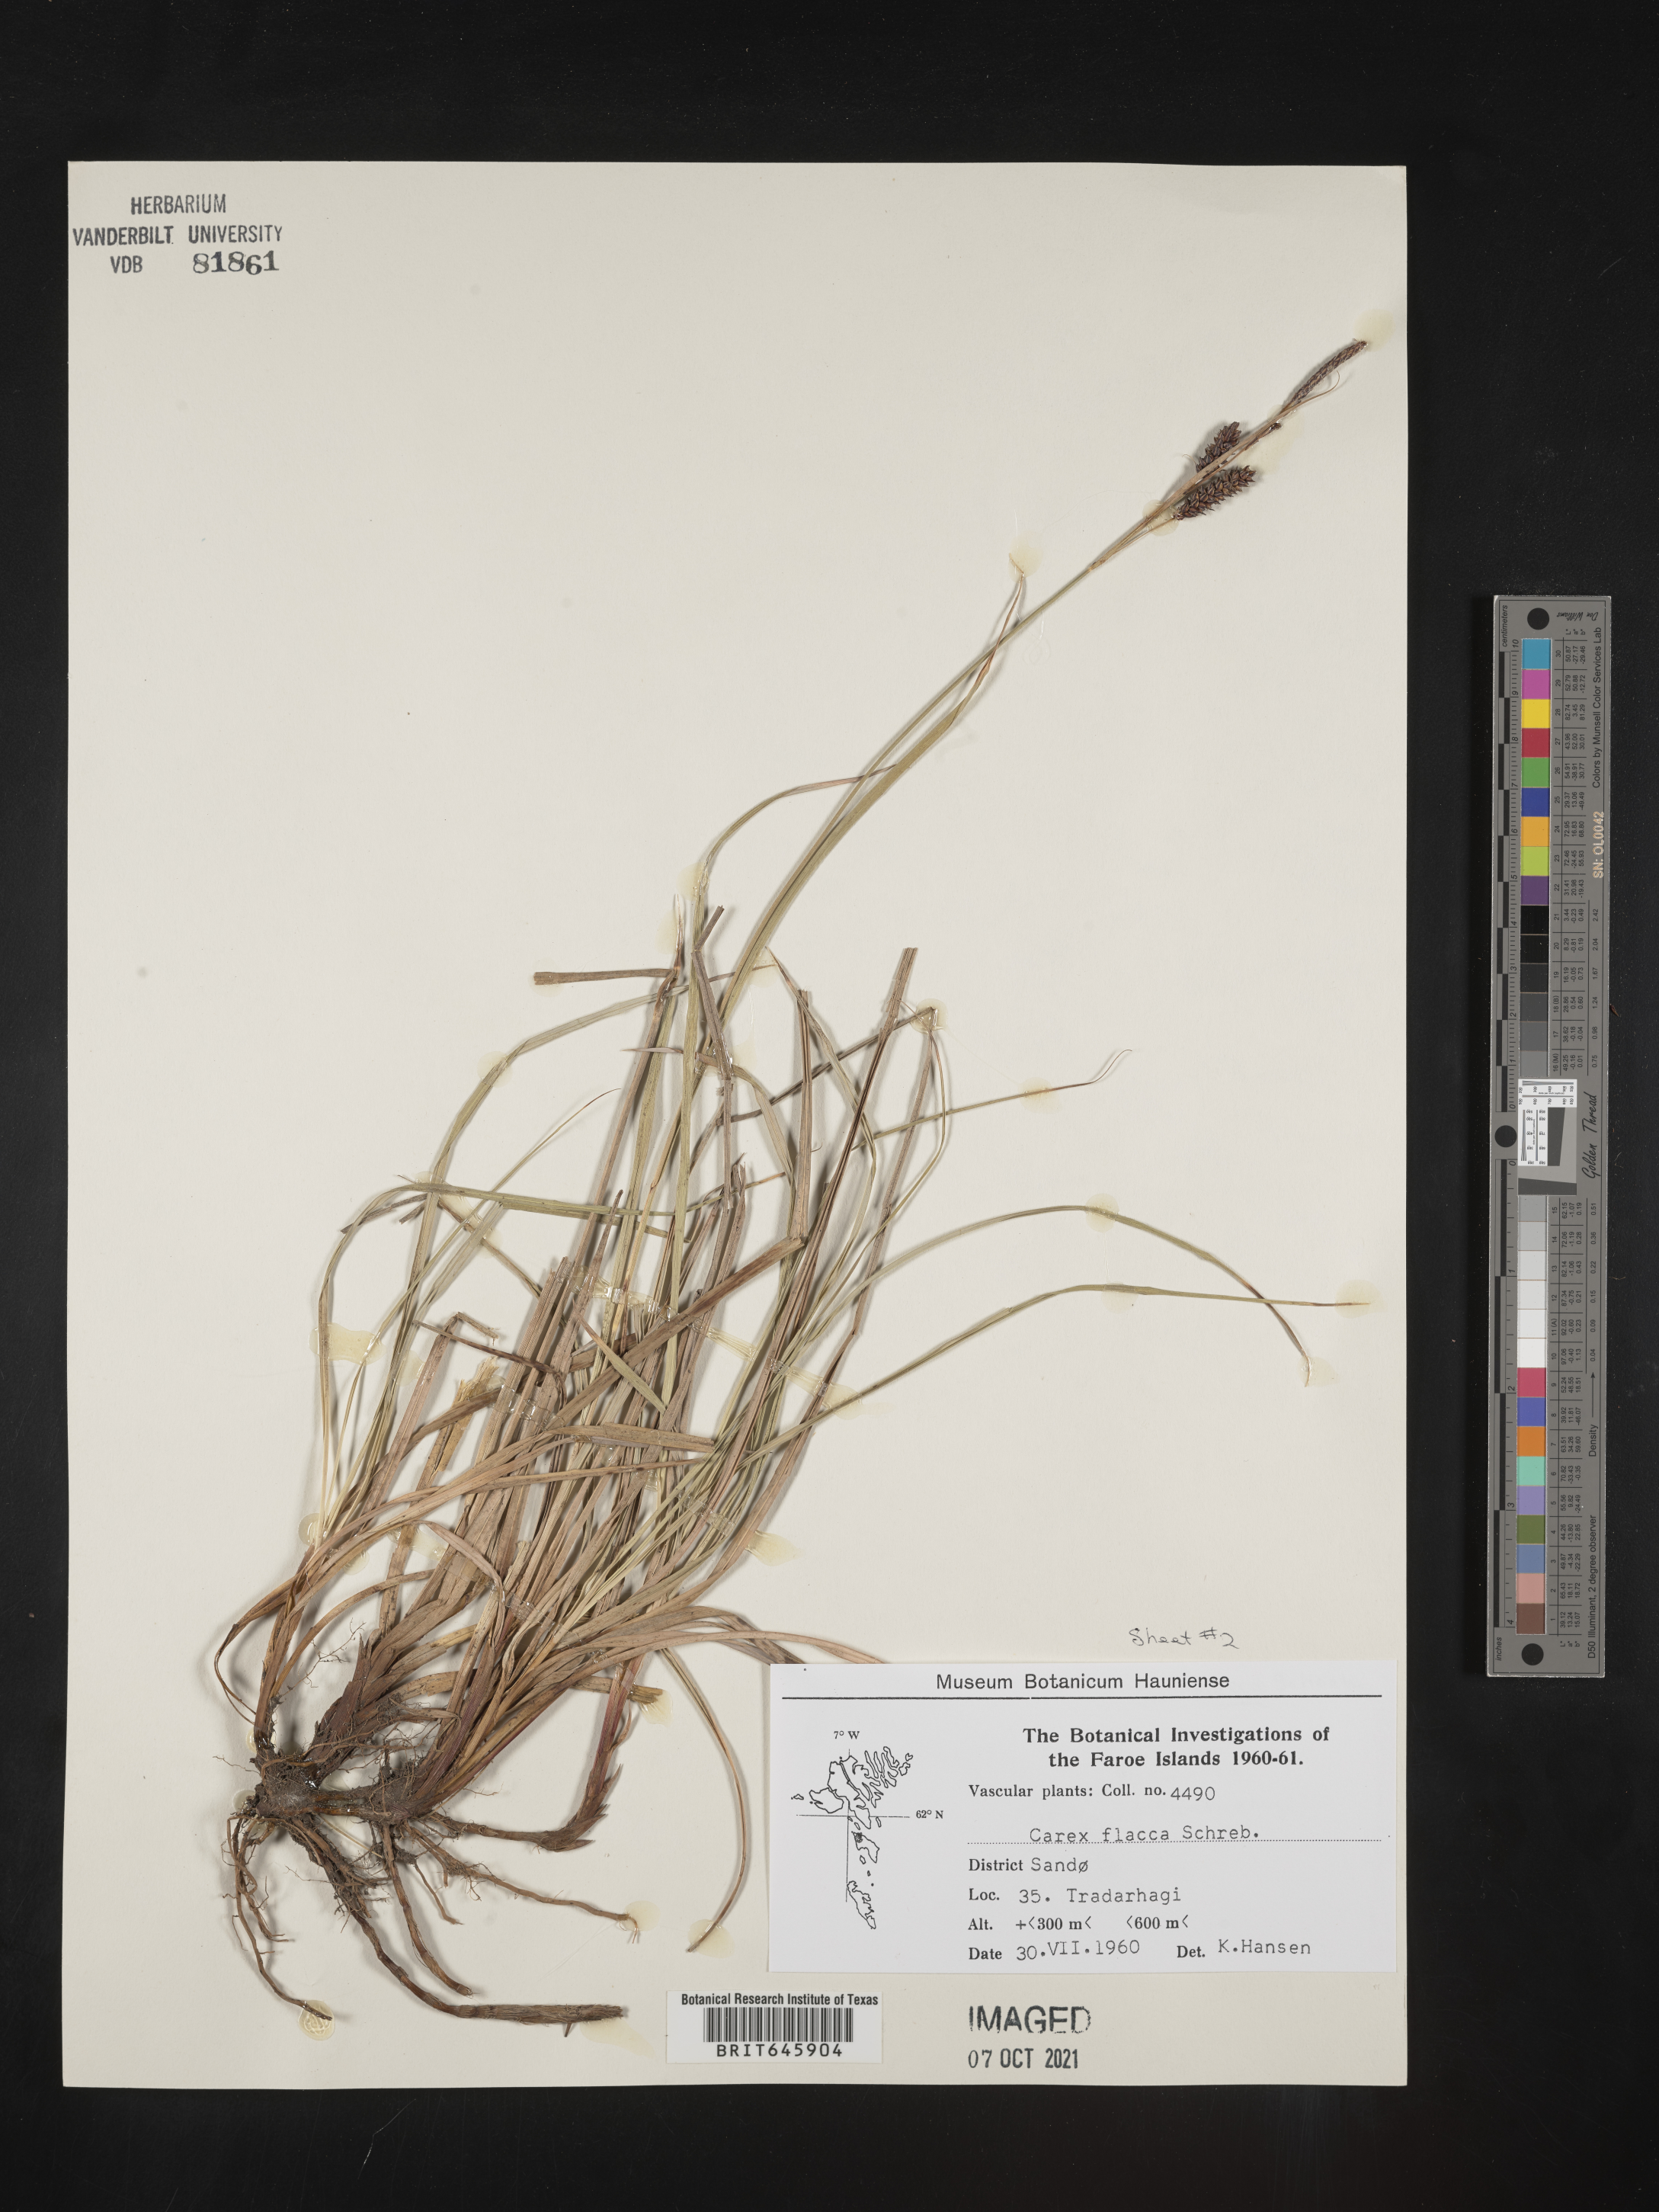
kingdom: Plantae
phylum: Tracheophyta
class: Liliopsida
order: Poales
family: Cyperaceae
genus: Carex
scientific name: Carex flacca
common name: Glaucous sedge
